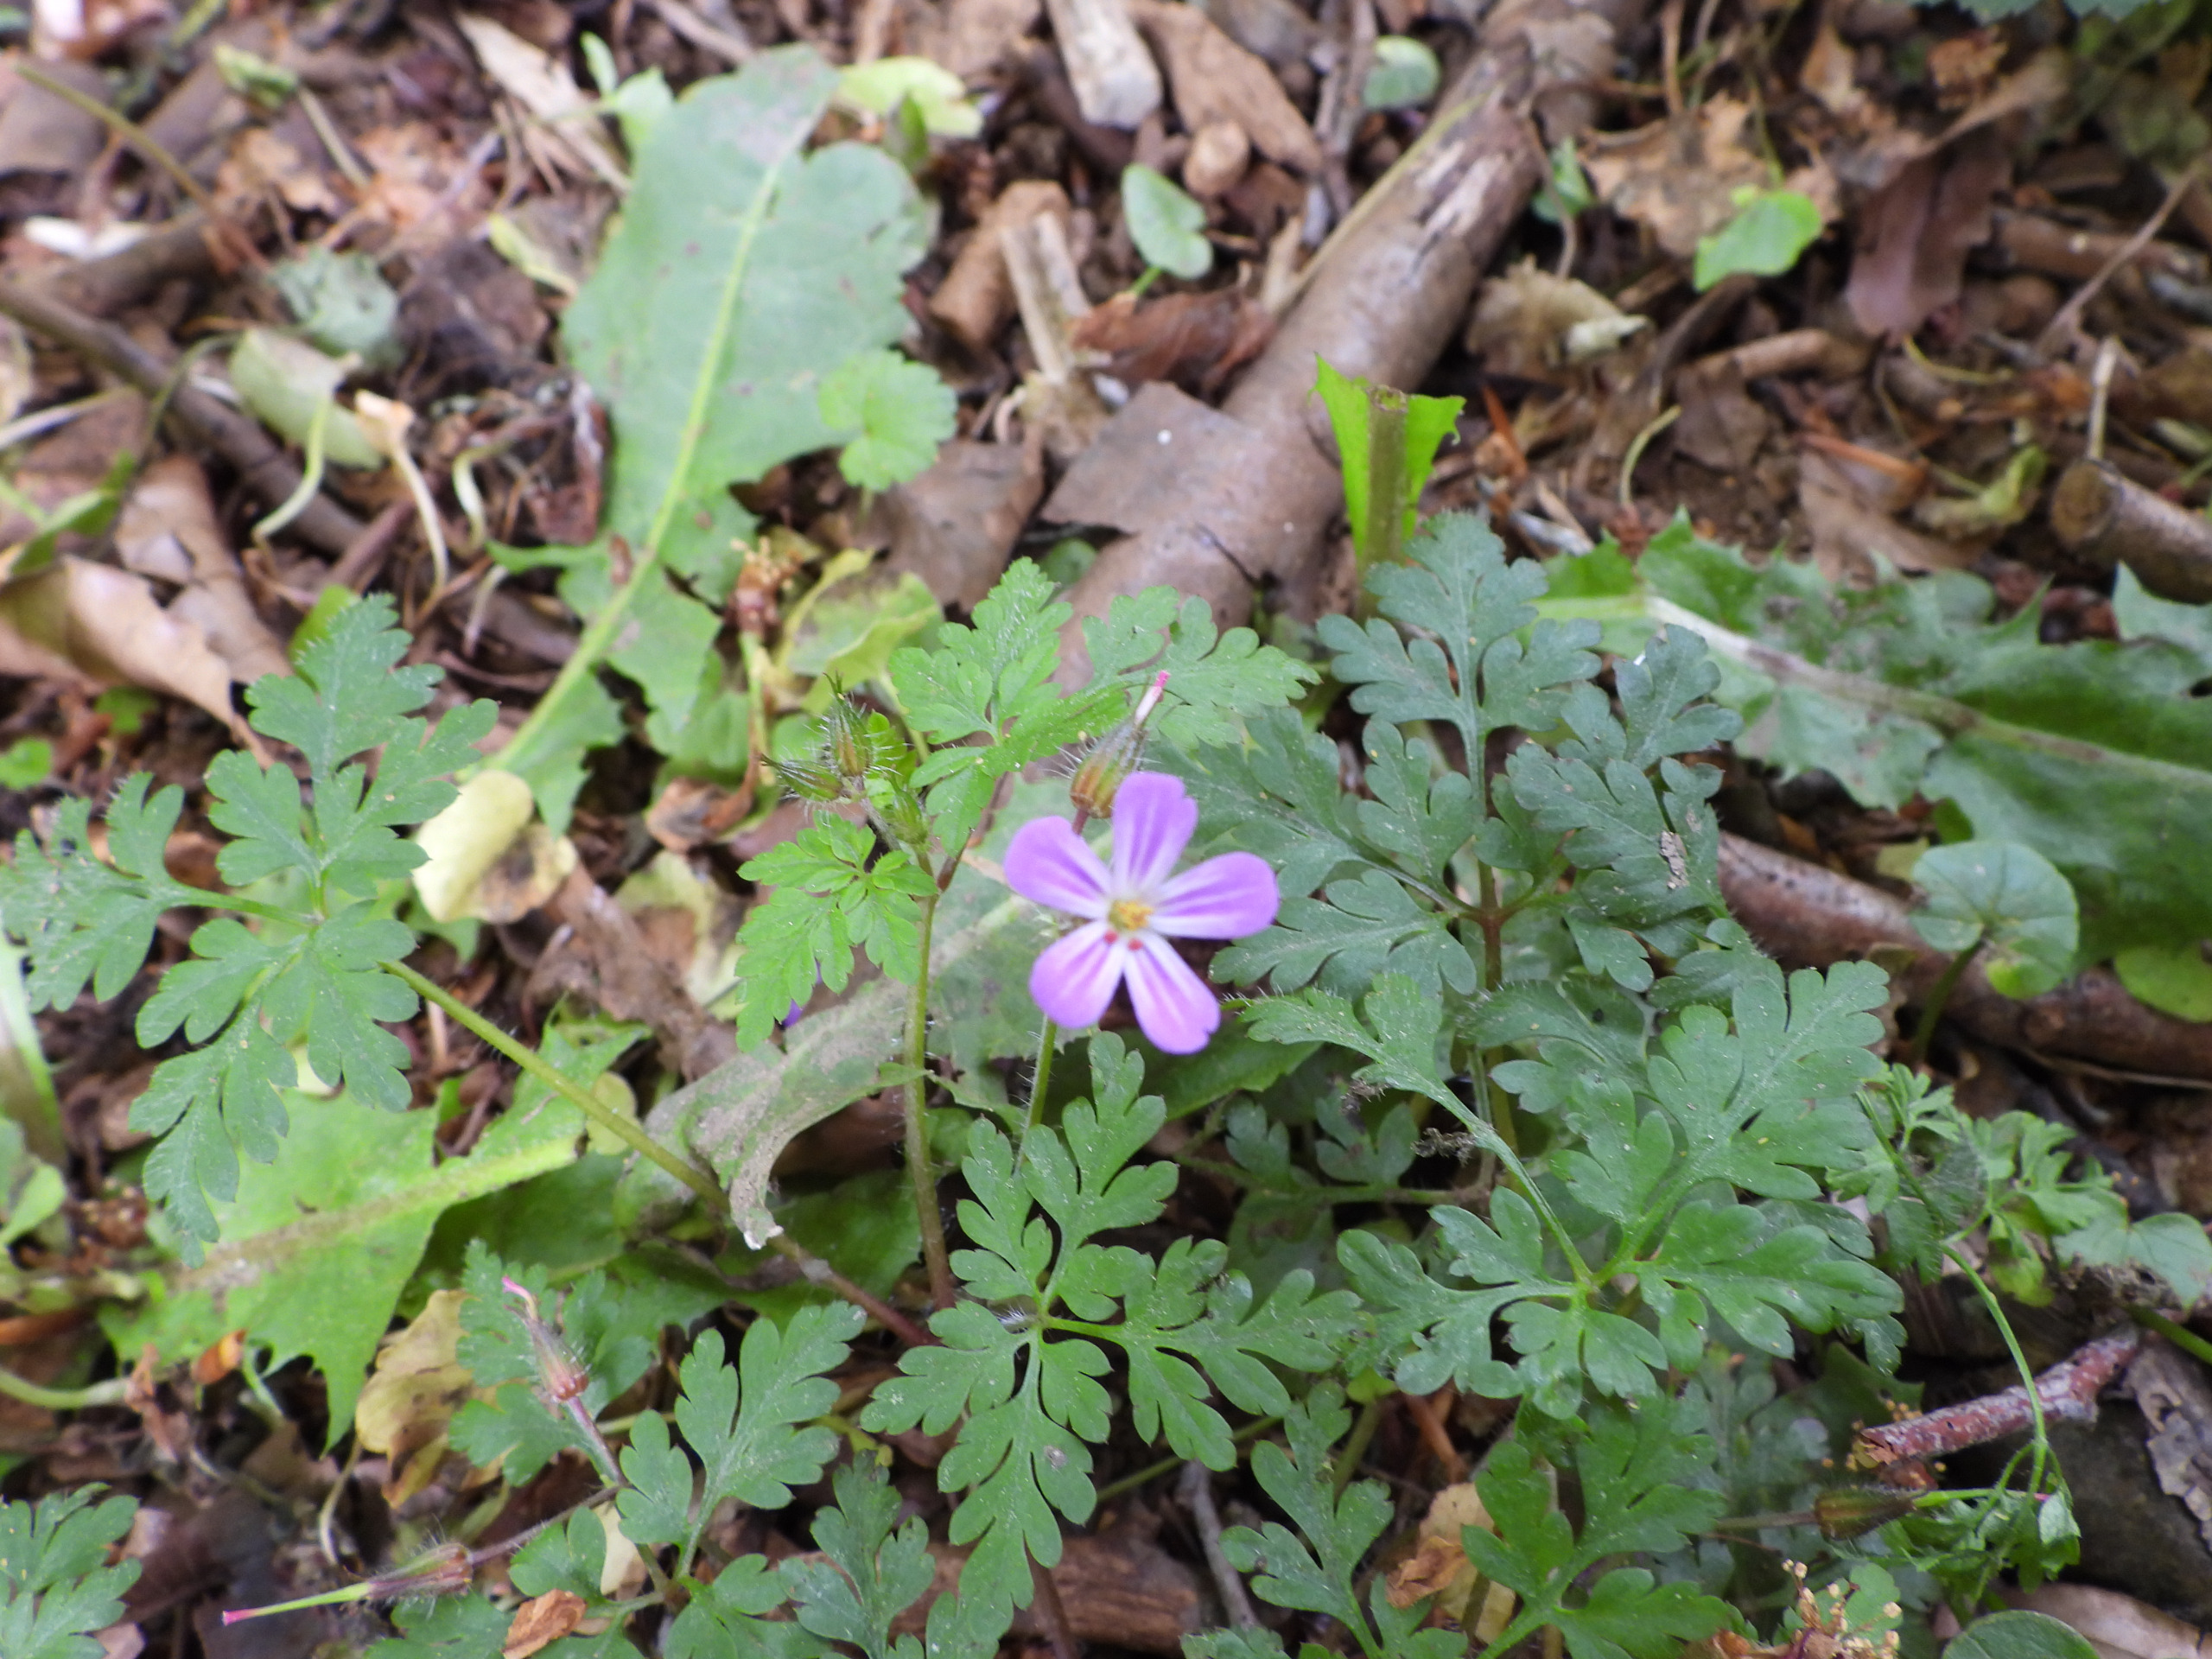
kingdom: Plantae
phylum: Tracheophyta
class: Magnoliopsida
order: Geraniales
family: Geraniaceae
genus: Geranium
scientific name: Geranium robertianum
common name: Stinkende storkenæb
